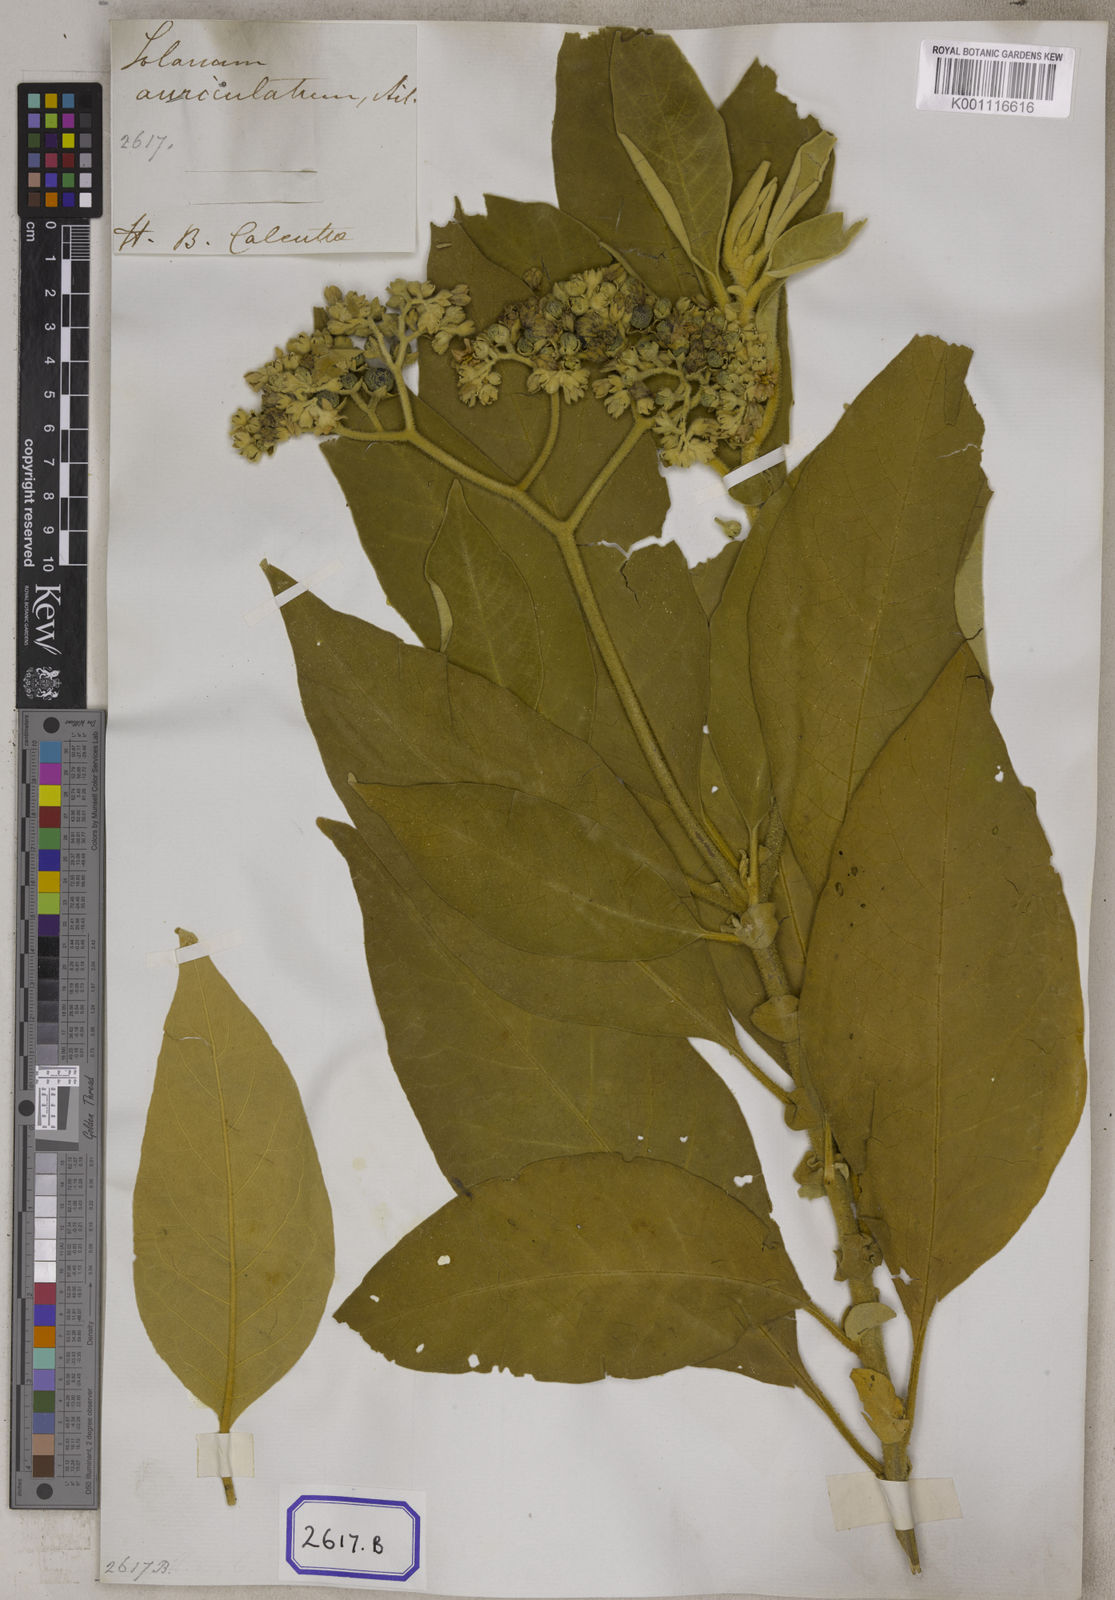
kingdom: Plantae
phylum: Tracheophyta
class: Magnoliopsida
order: Solanales
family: Solanaceae
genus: Solanum
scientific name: Solanum mauritianum
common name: Earleaf nightshade
